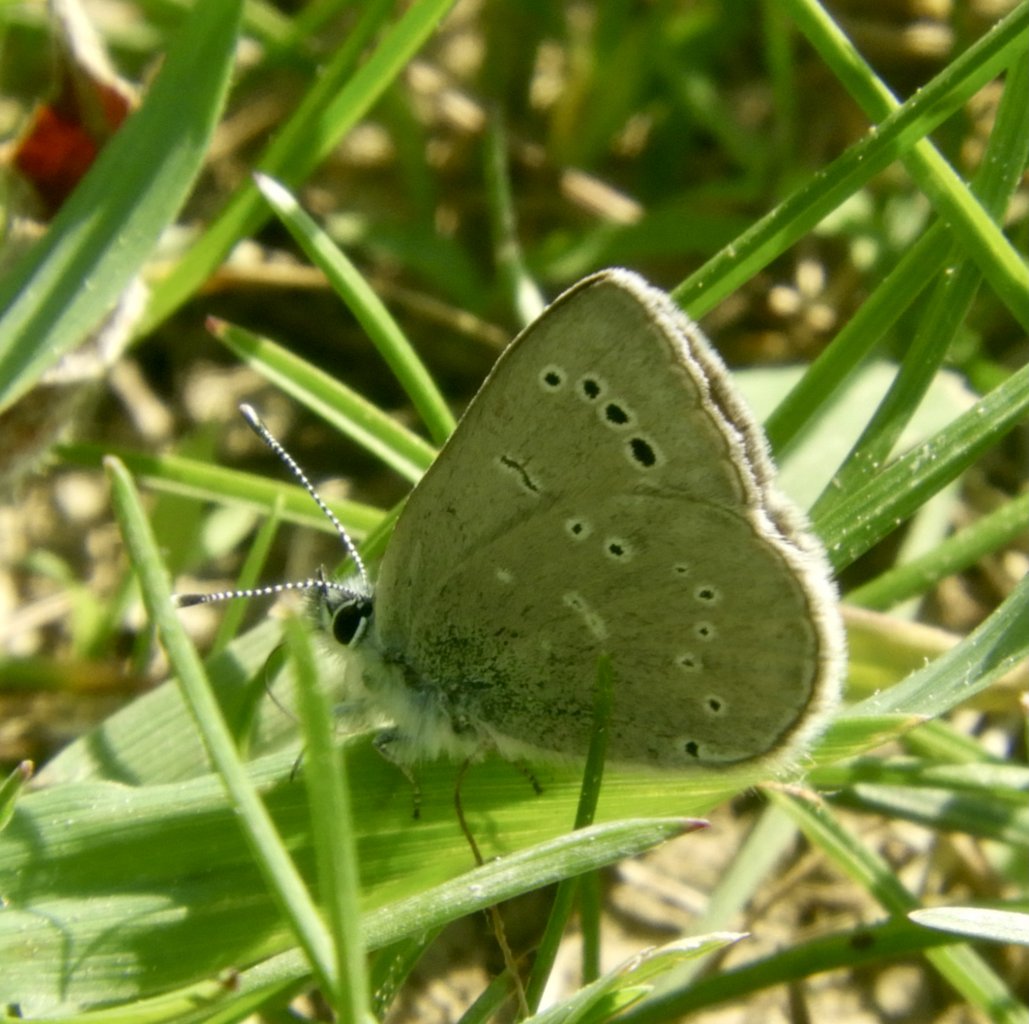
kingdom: Animalia
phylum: Arthropoda
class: Insecta
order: Lepidoptera
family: Lycaenidae
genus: Glaucopsyche
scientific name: Glaucopsyche lygdamus
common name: Silvery Blue
